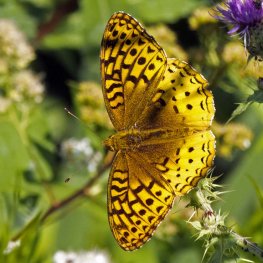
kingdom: Animalia
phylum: Arthropoda
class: Insecta
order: Lepidoptera
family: Nymphalidae
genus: Speyeria
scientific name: Speyeria cybele
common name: Great Spangled Fritillary
